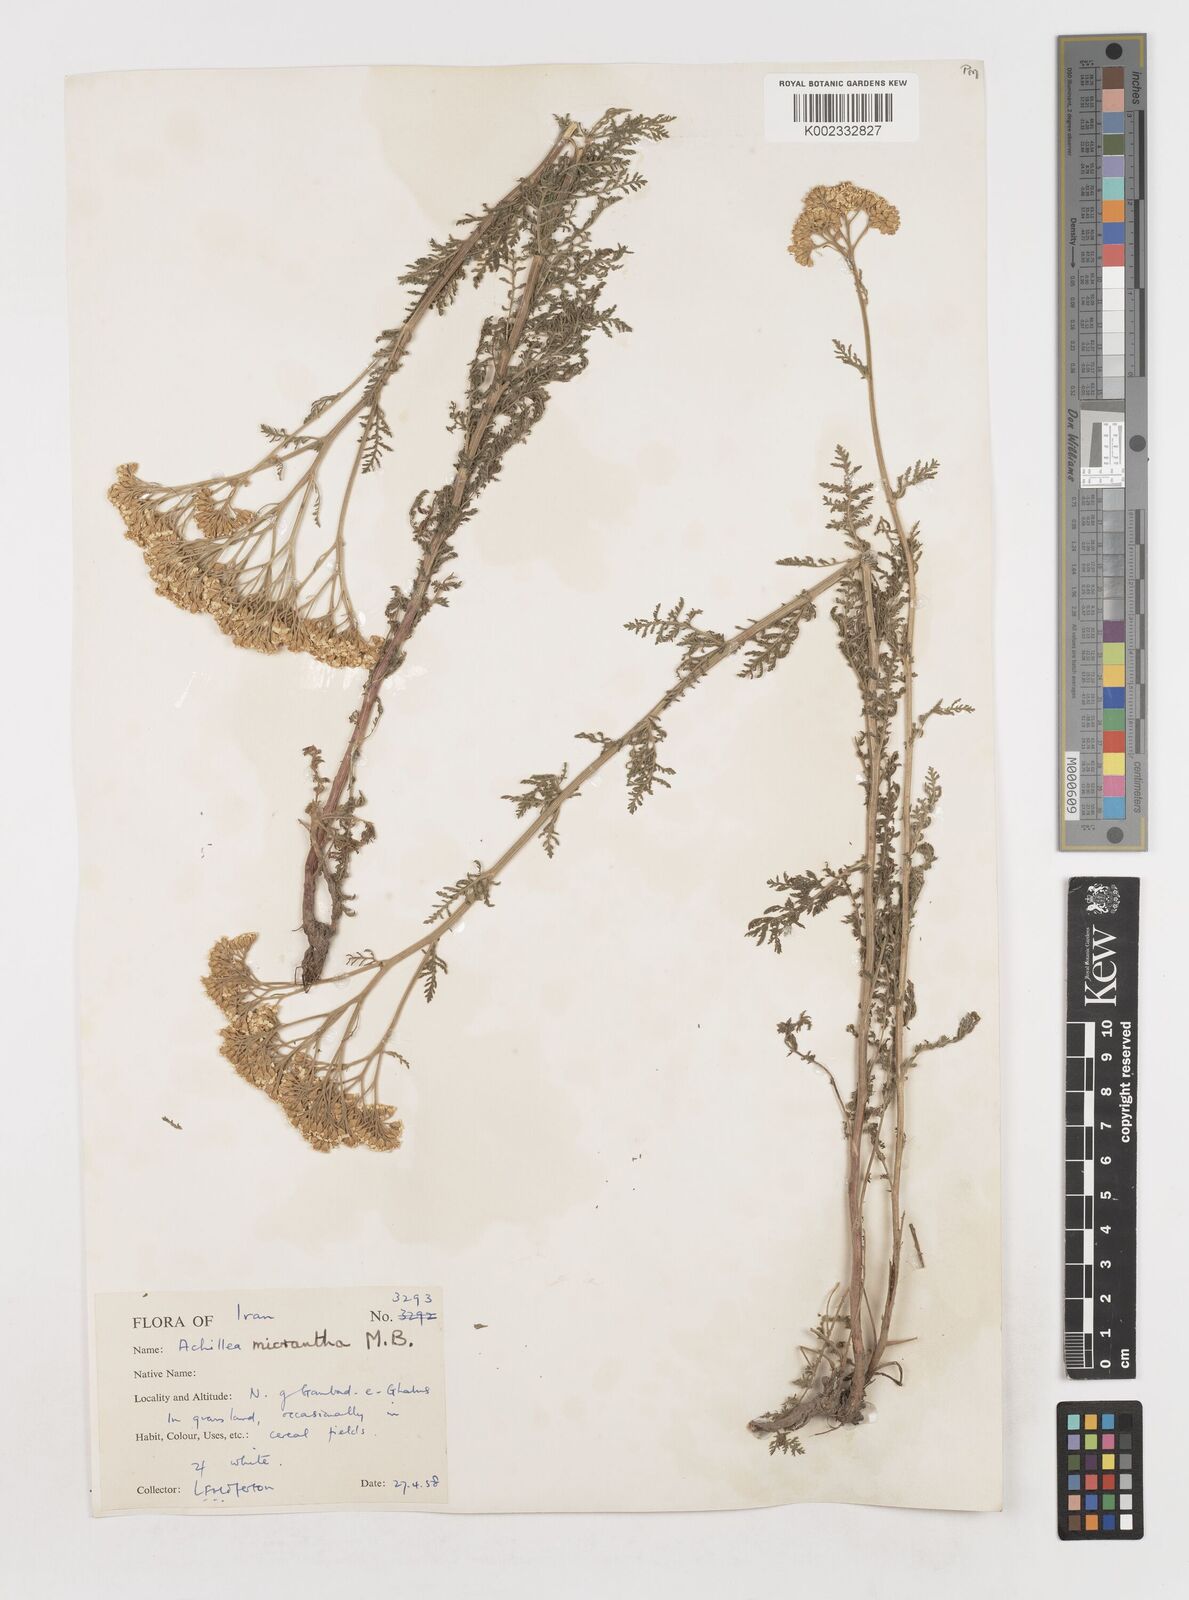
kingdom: Plantae
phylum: Tracheophyta
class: Magnoliopsida
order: Asterales
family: Asteraceae
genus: Achillea
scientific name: Achillea arabica
